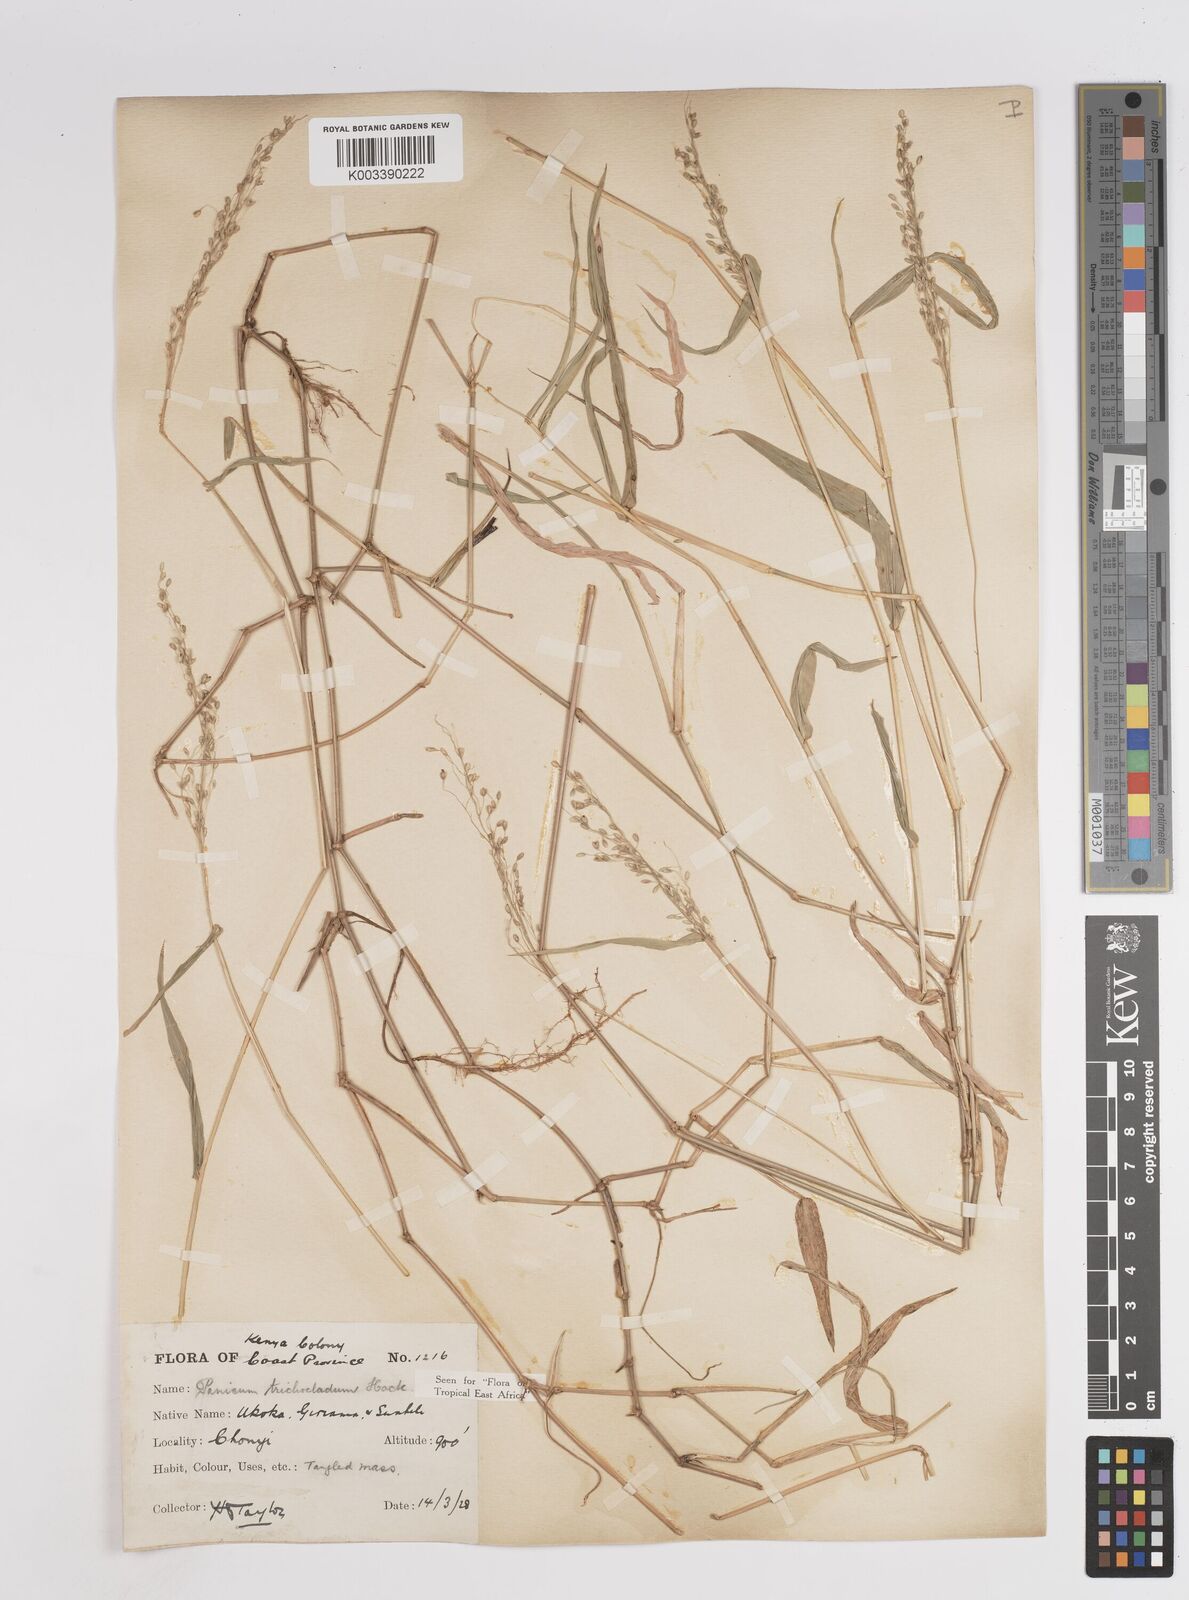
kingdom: Plantae
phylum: Tracheophyta
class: Liliopsida
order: Poales
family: Poaceae
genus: Panicum
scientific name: Panicum trichocladum
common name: Donkey grass
